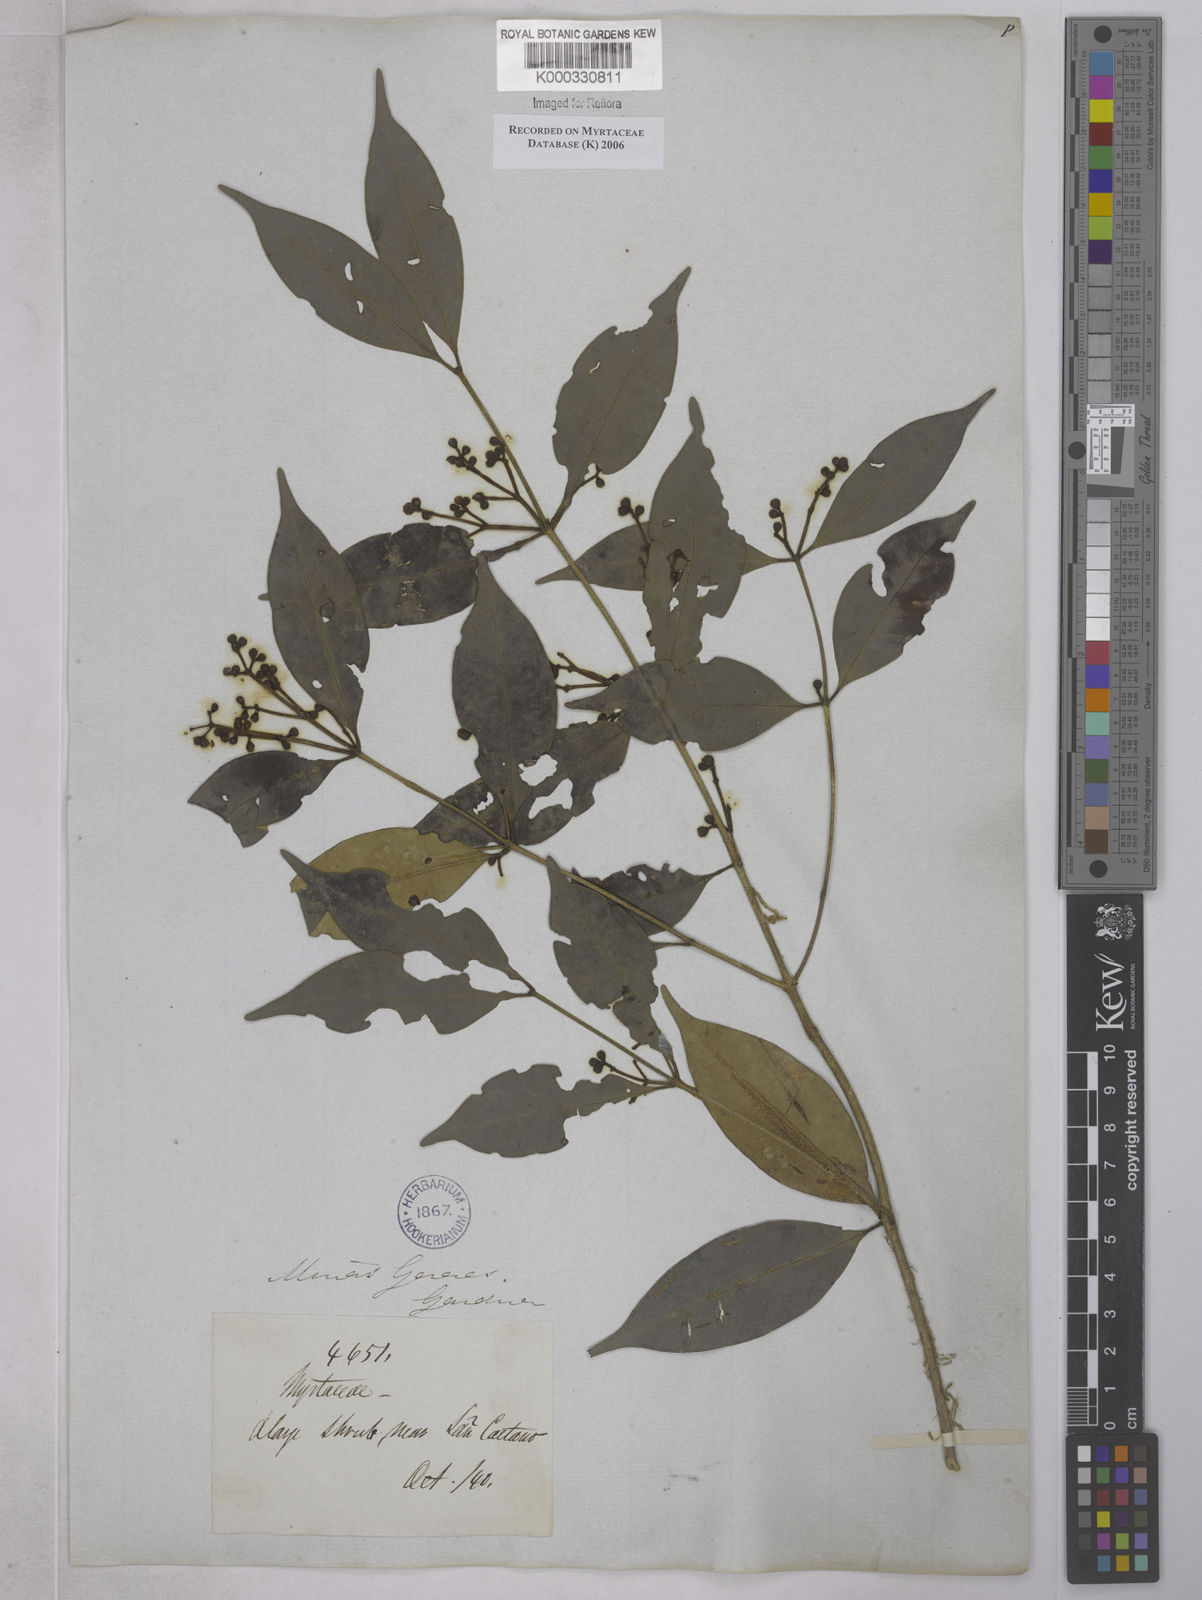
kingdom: Plantae
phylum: Tracheophyta
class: Magnoliopsida
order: Myrtales
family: Myrtaceae
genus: Myrcia
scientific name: Myrcia multipunctata
